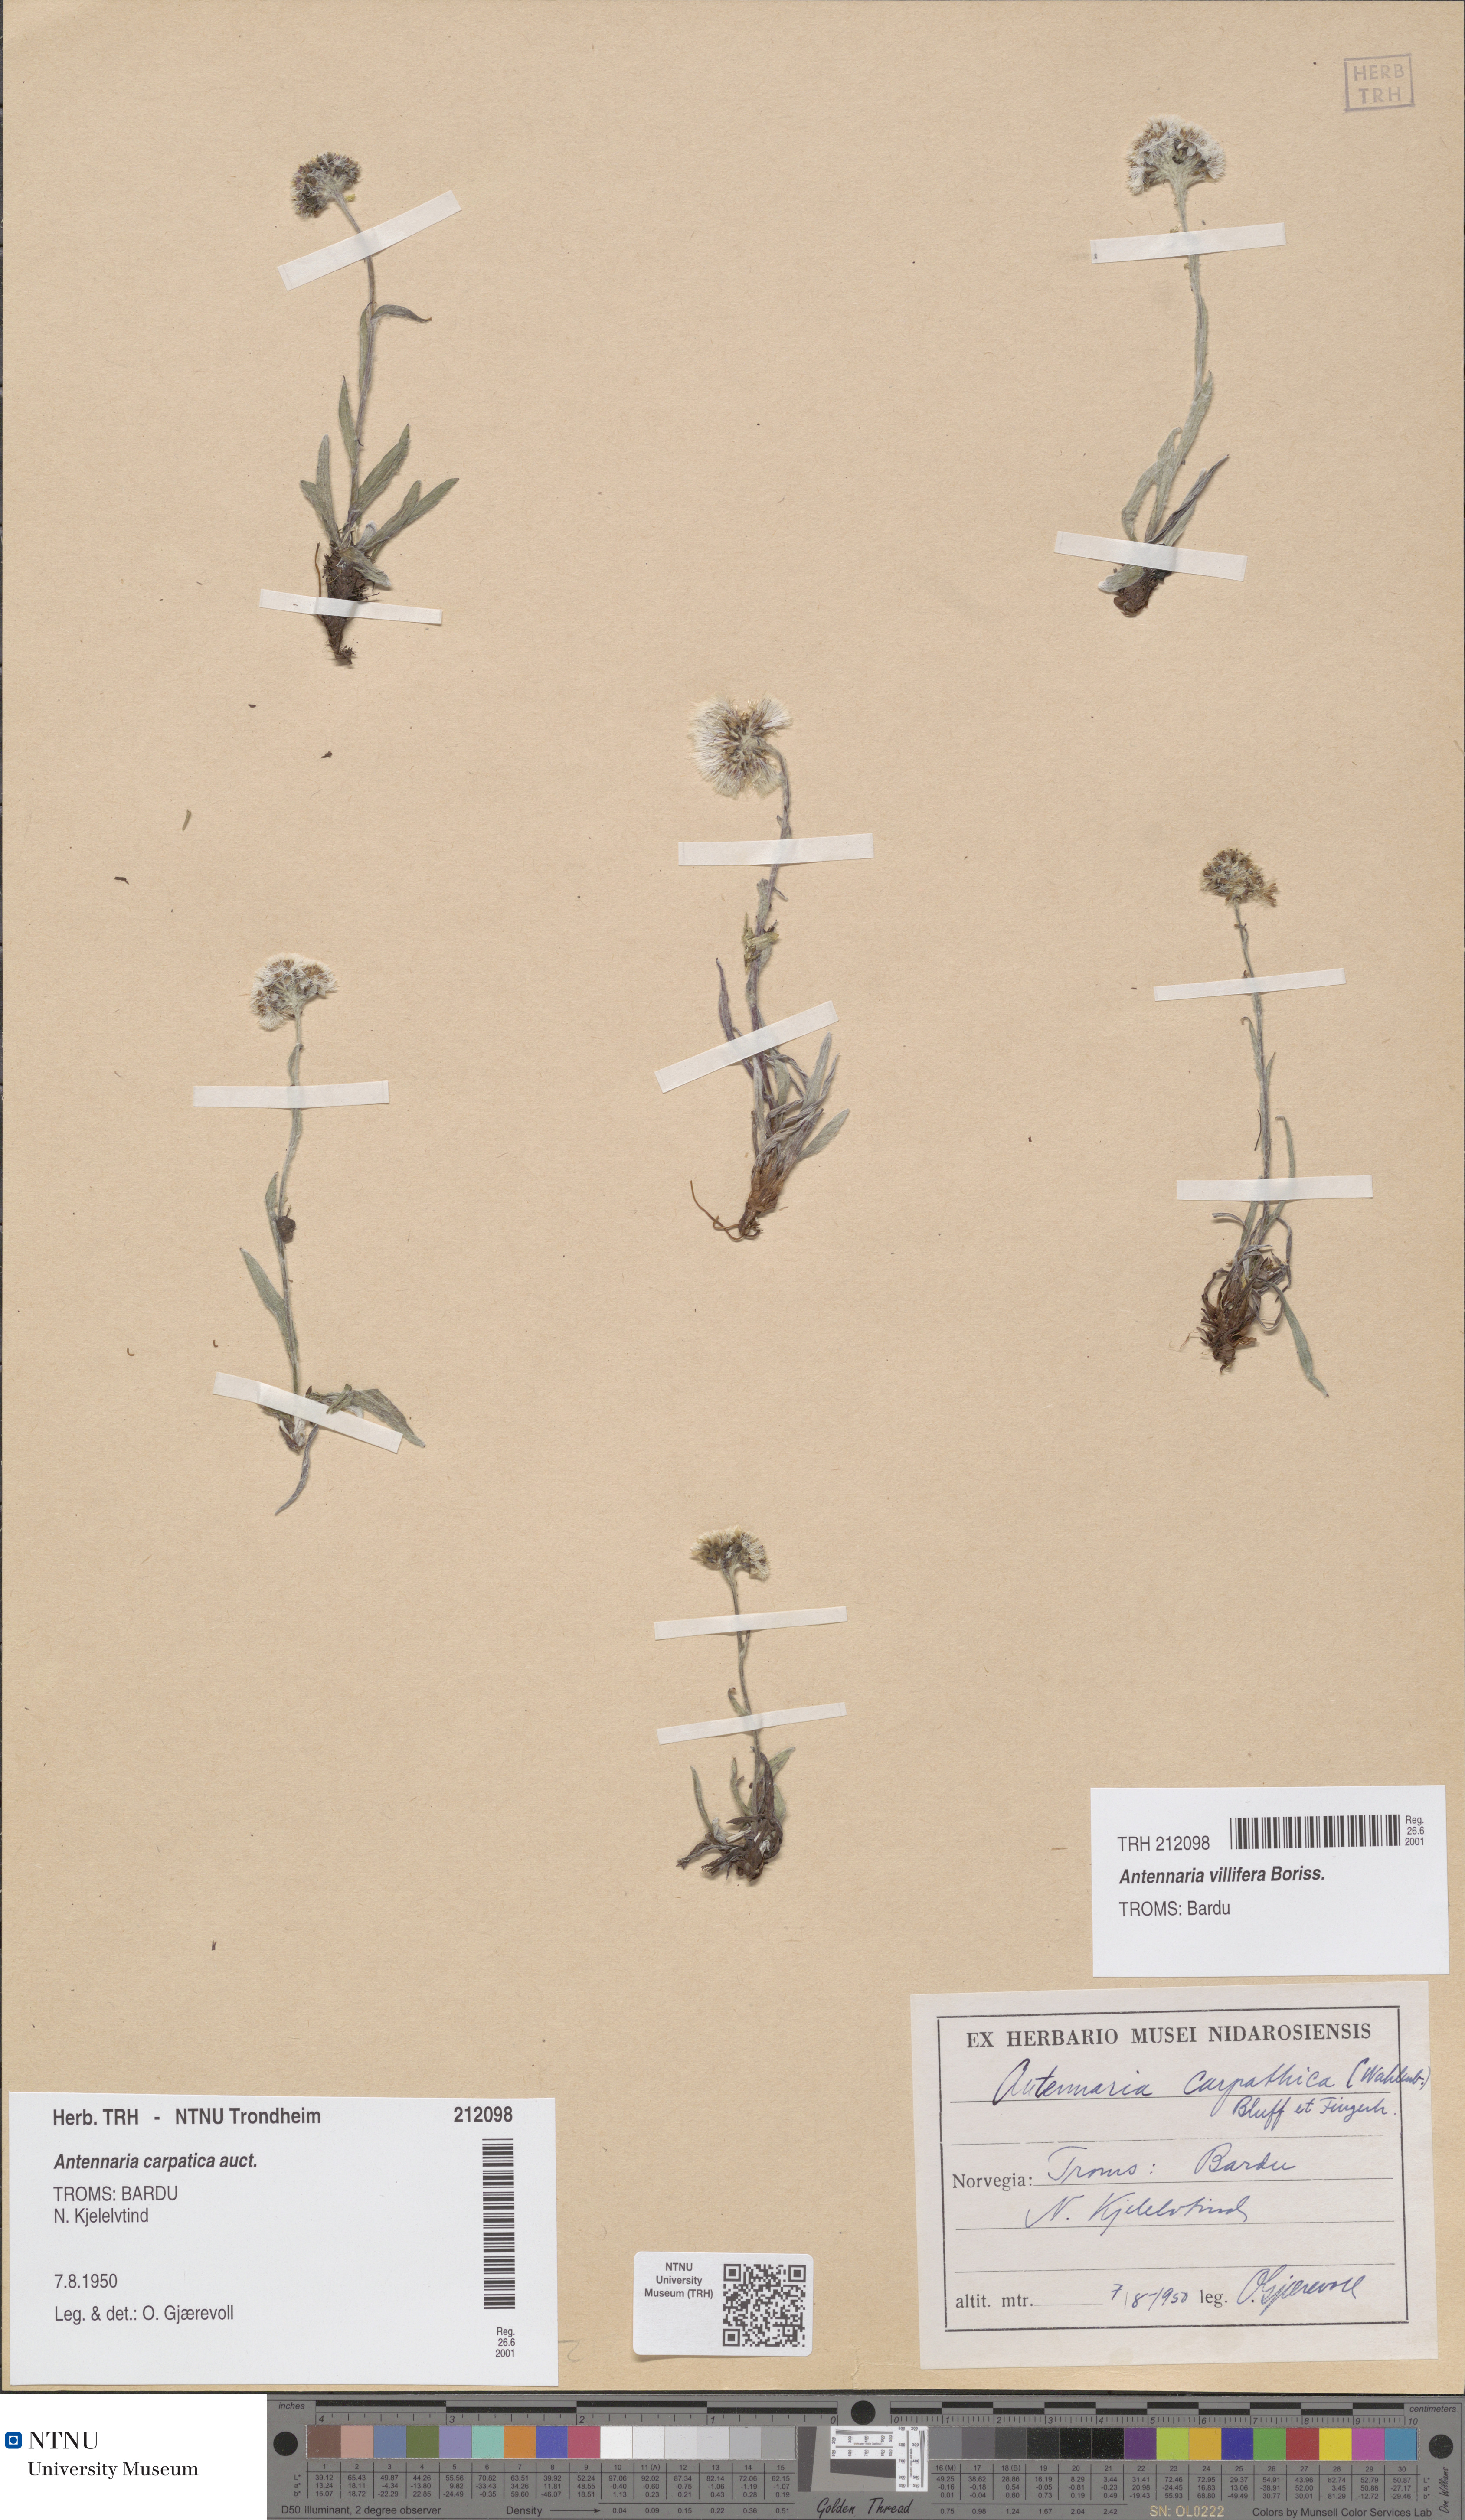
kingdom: Plantae
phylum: Tracheophyta
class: Magnoliopsida
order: Asterales
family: Asteraceae
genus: Antennaria
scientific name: Antennaria carpatica
